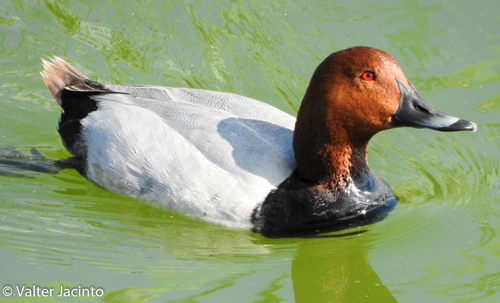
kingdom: Animalia
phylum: Chordata
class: Aves
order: Anseriformes
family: Anatidae
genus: Aythya
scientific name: Aythya ferina
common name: Common pochard
